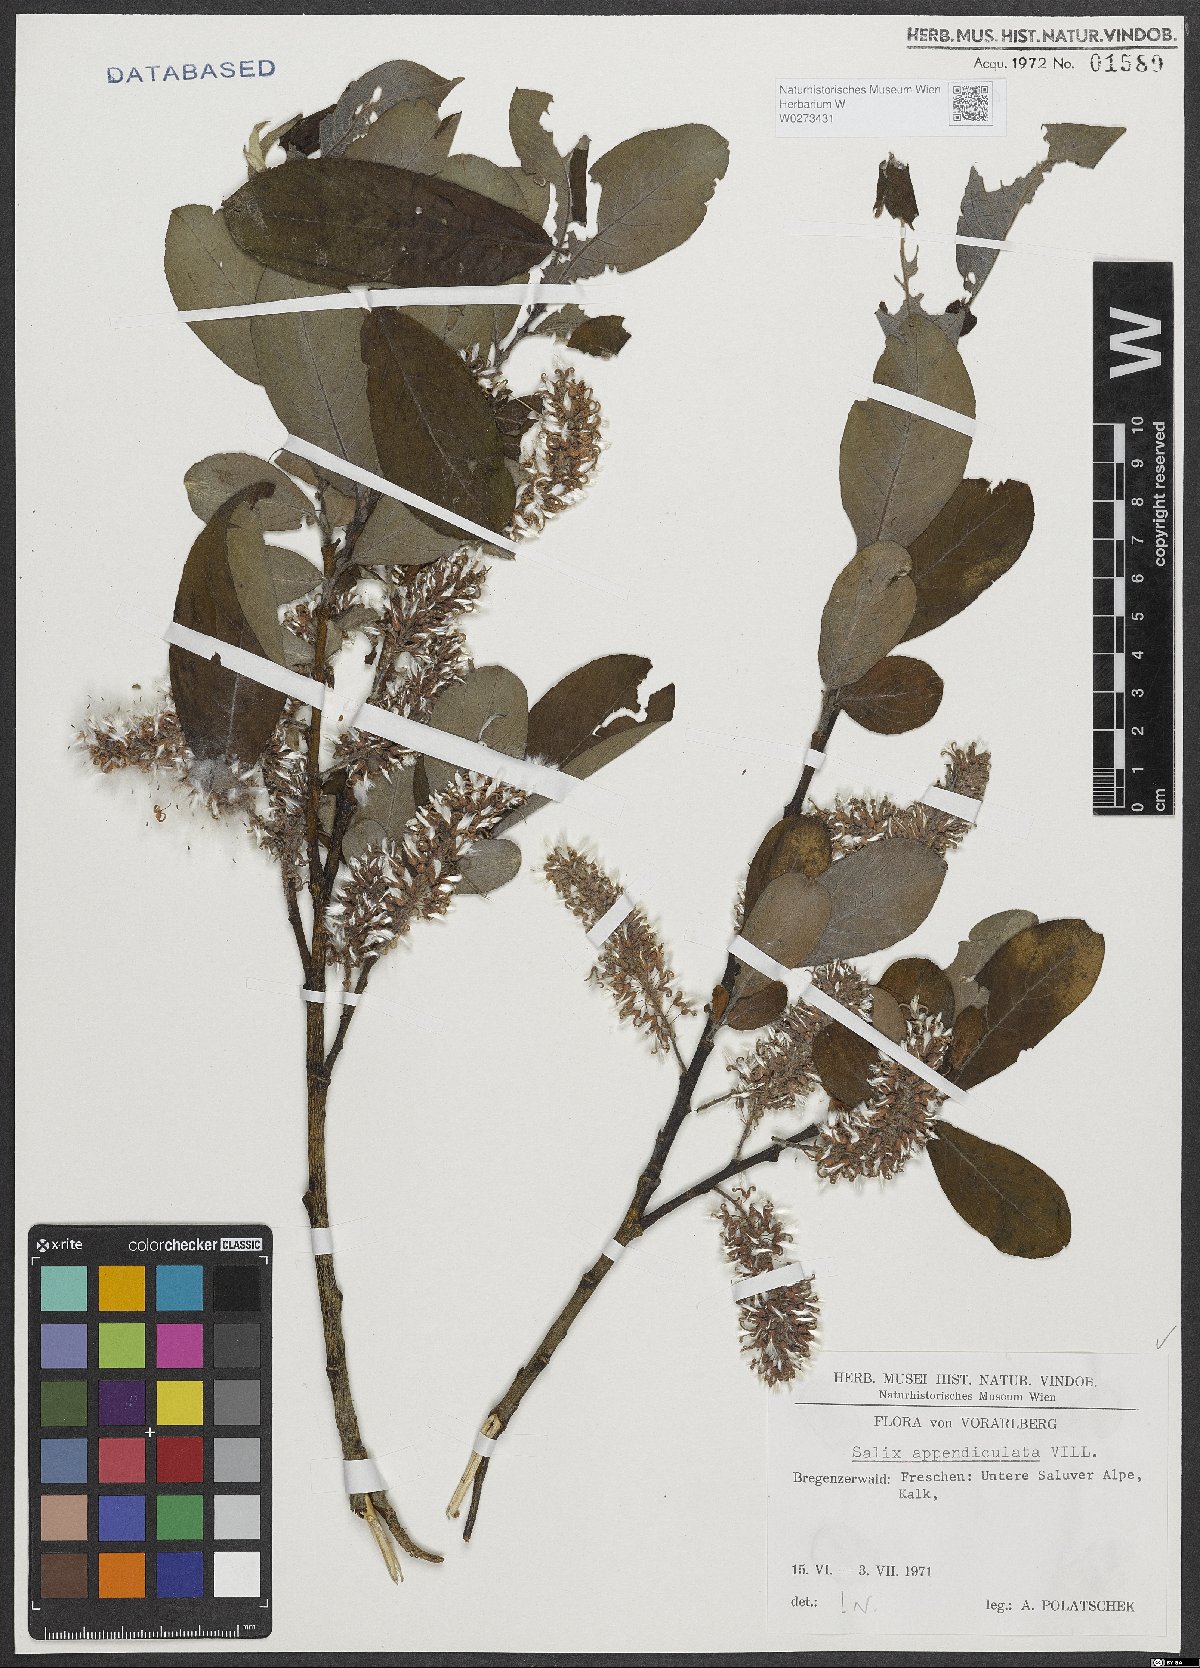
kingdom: Plantae
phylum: Tracheophyta
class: Magnoliopsida
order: Malpighiales
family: Salicaceae
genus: Salix
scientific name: Salix appendiculata
